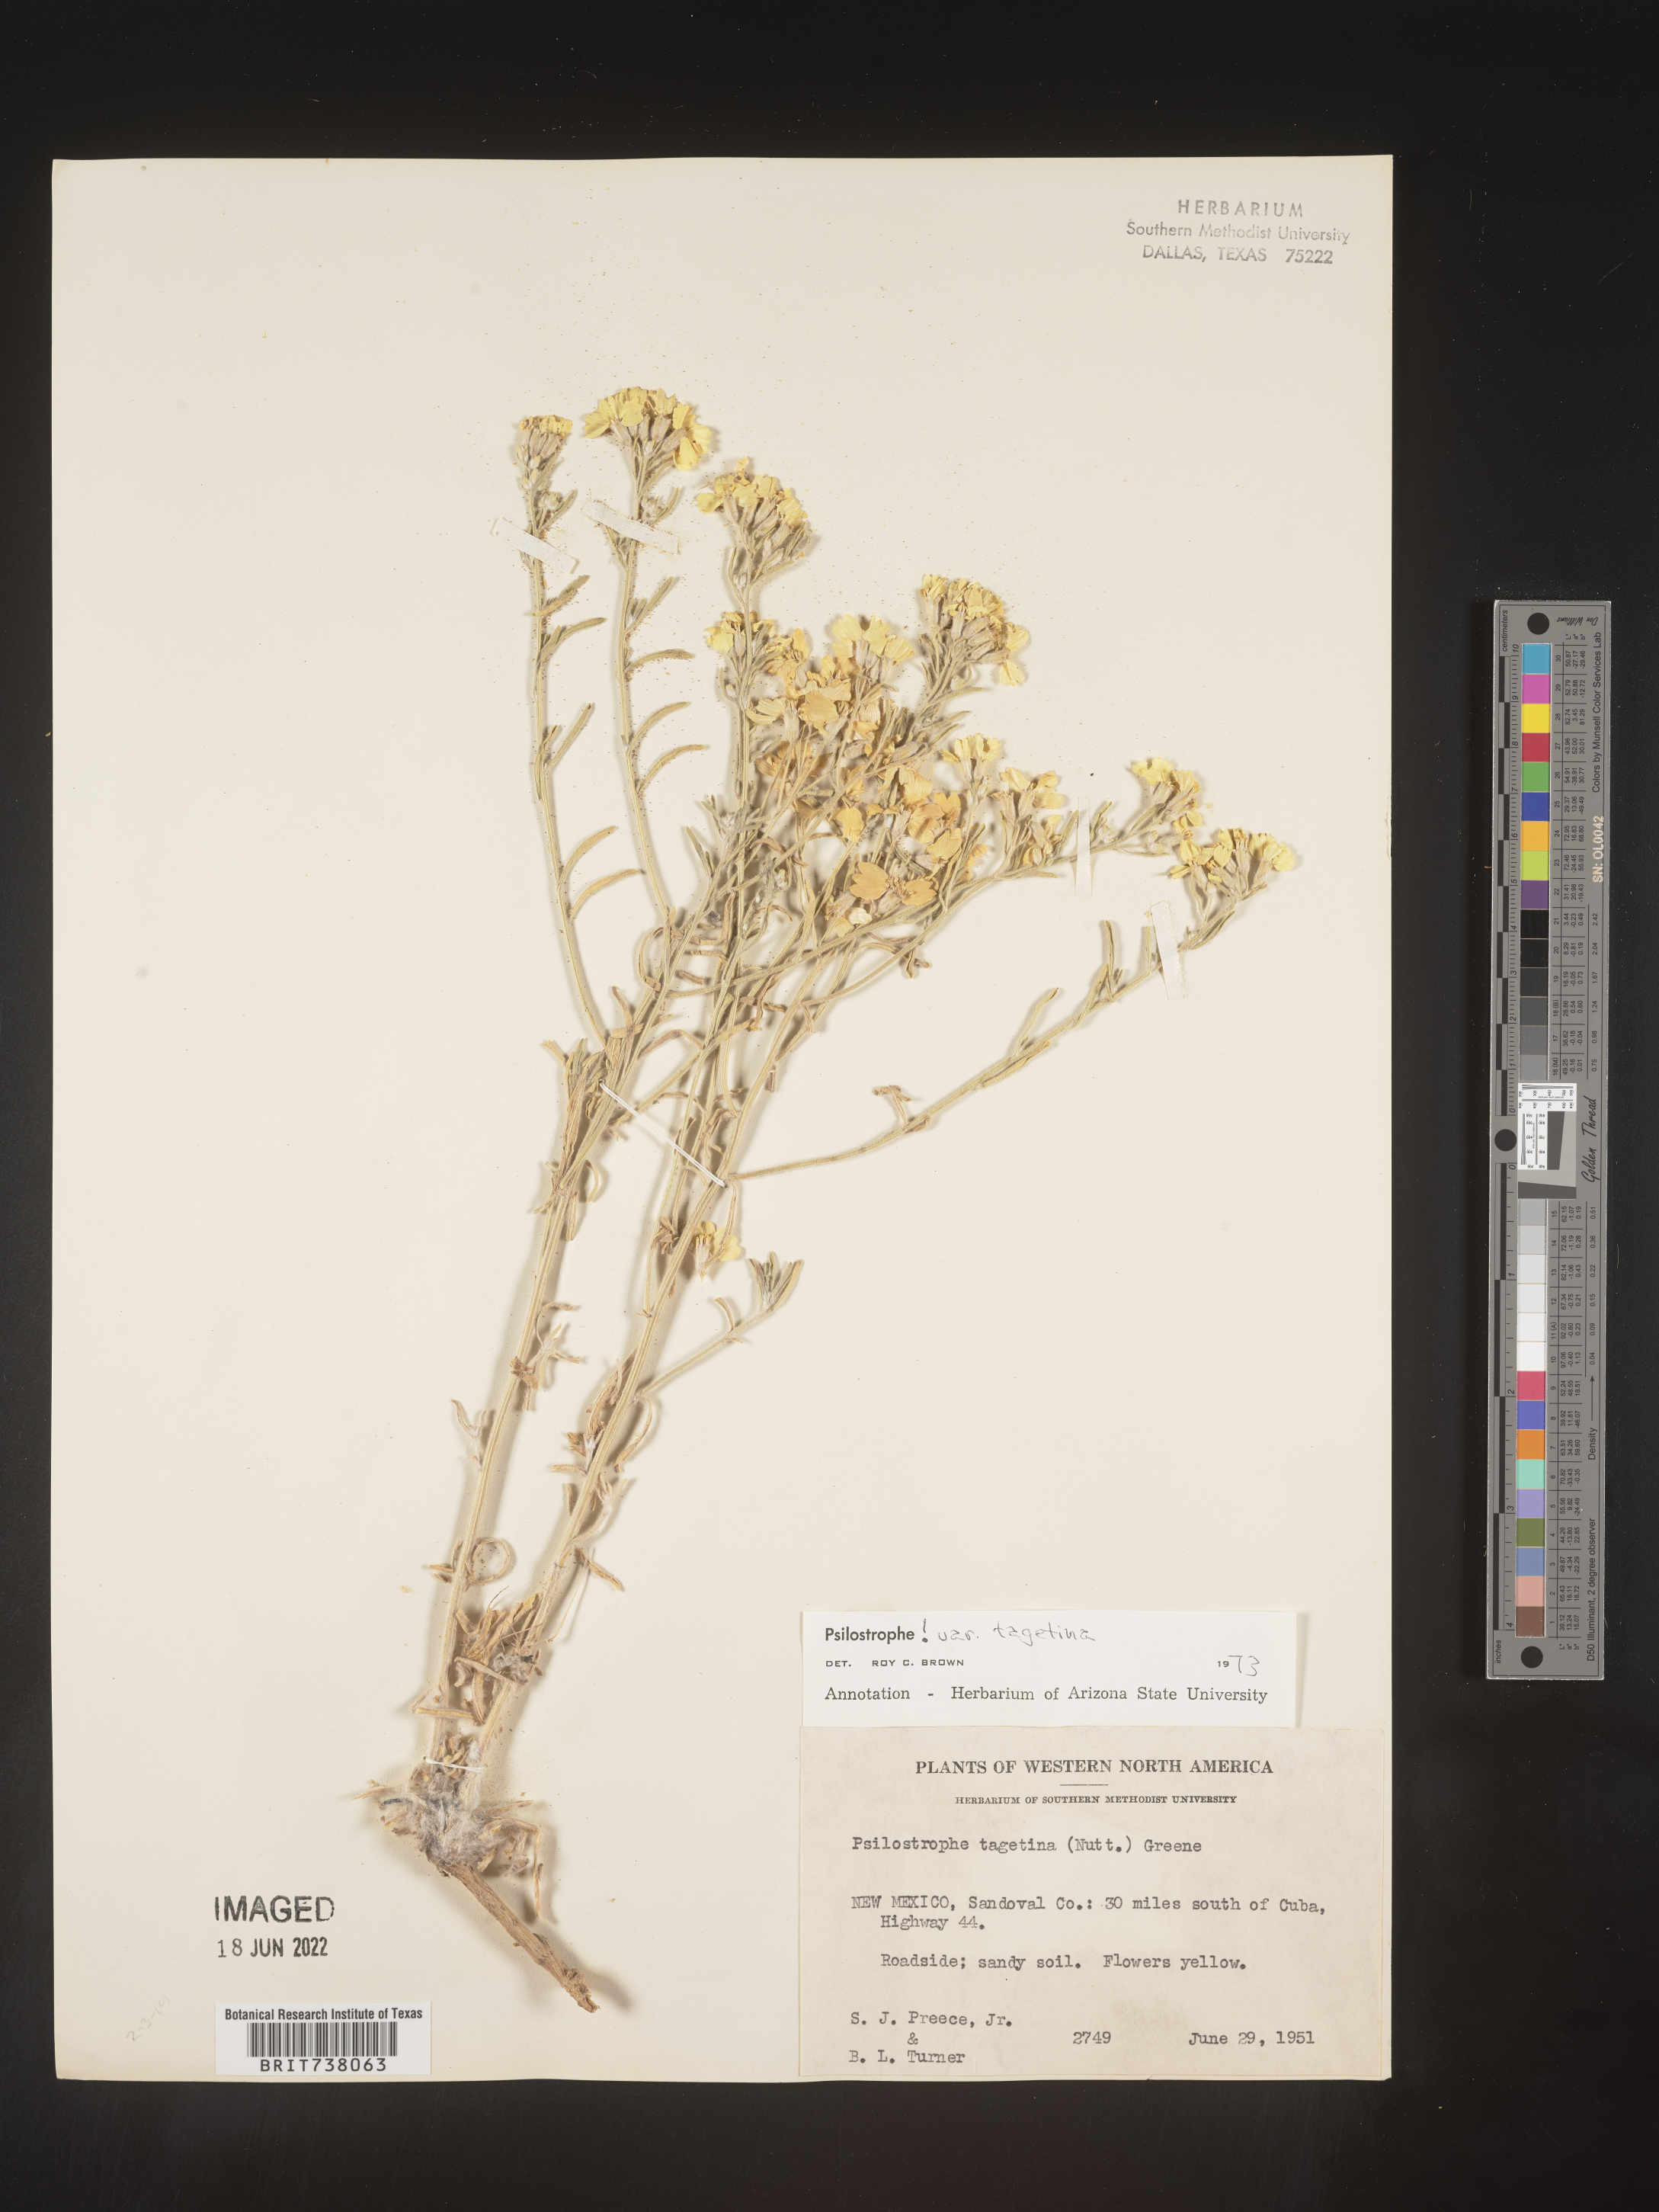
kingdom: Plantae
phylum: Tracheophyta
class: Magnoliopsida
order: Asterales
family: Asteraceae
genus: Psilostrophe
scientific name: Psilostrophe tagetina
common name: Marigold paper-flower
